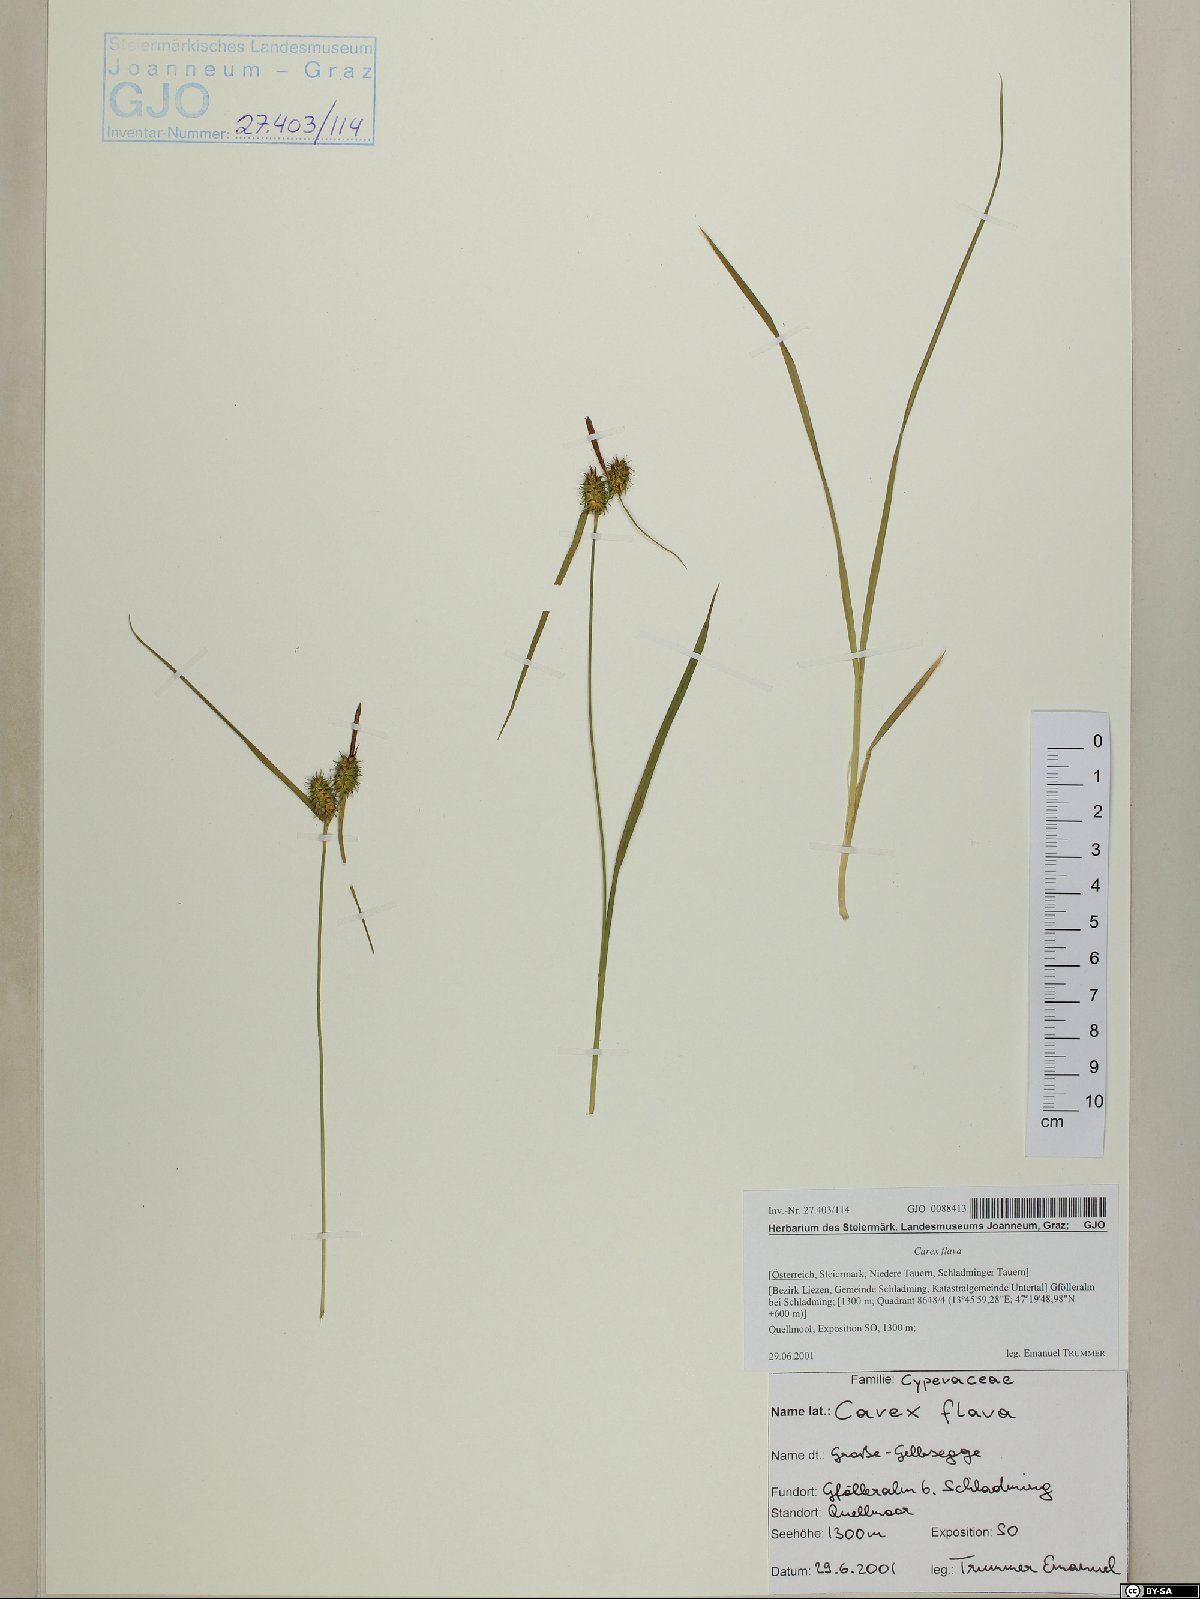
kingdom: Plantae
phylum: Tracheophyta
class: Liliopsida
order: Poales
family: Cyperaceae
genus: Carex
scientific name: Carex flava
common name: Large yellow-sedge
